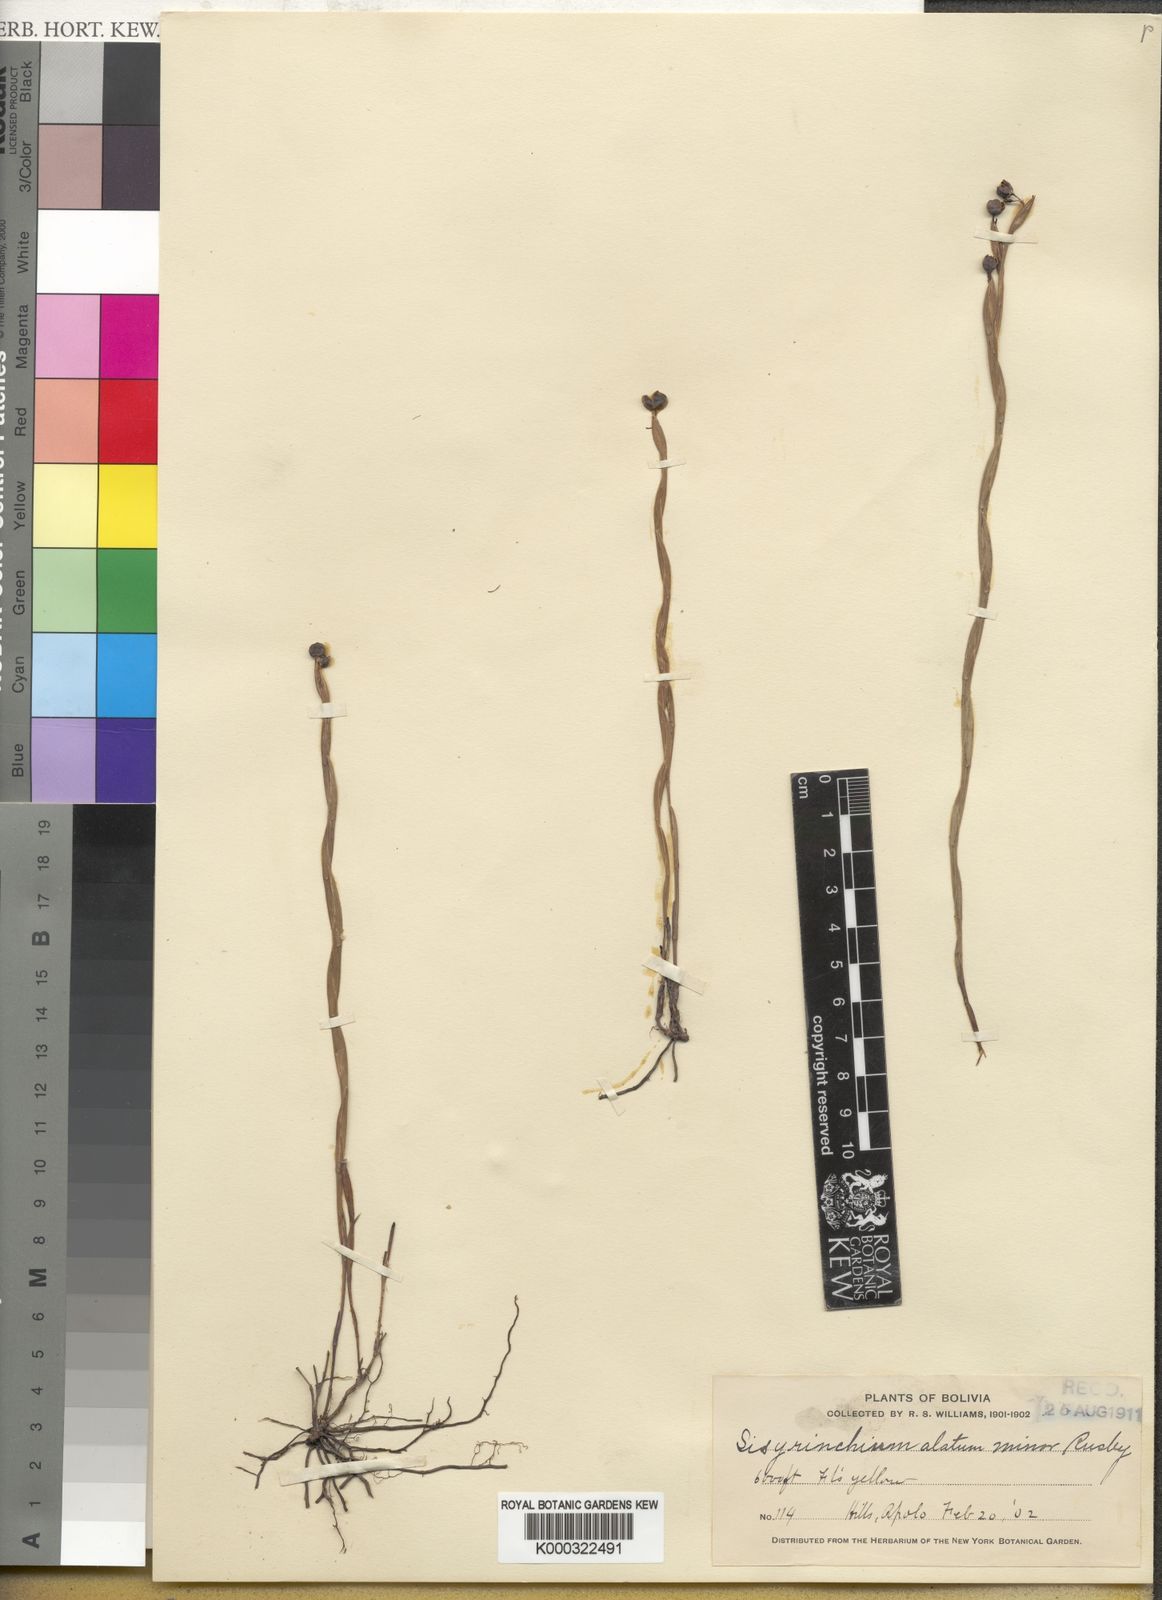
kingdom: Plantae
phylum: Tracheophyta
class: Liliopsida
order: Asparagales
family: Iridaceae
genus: Sisyrinchium
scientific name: Sisyrinchium vaginatum
